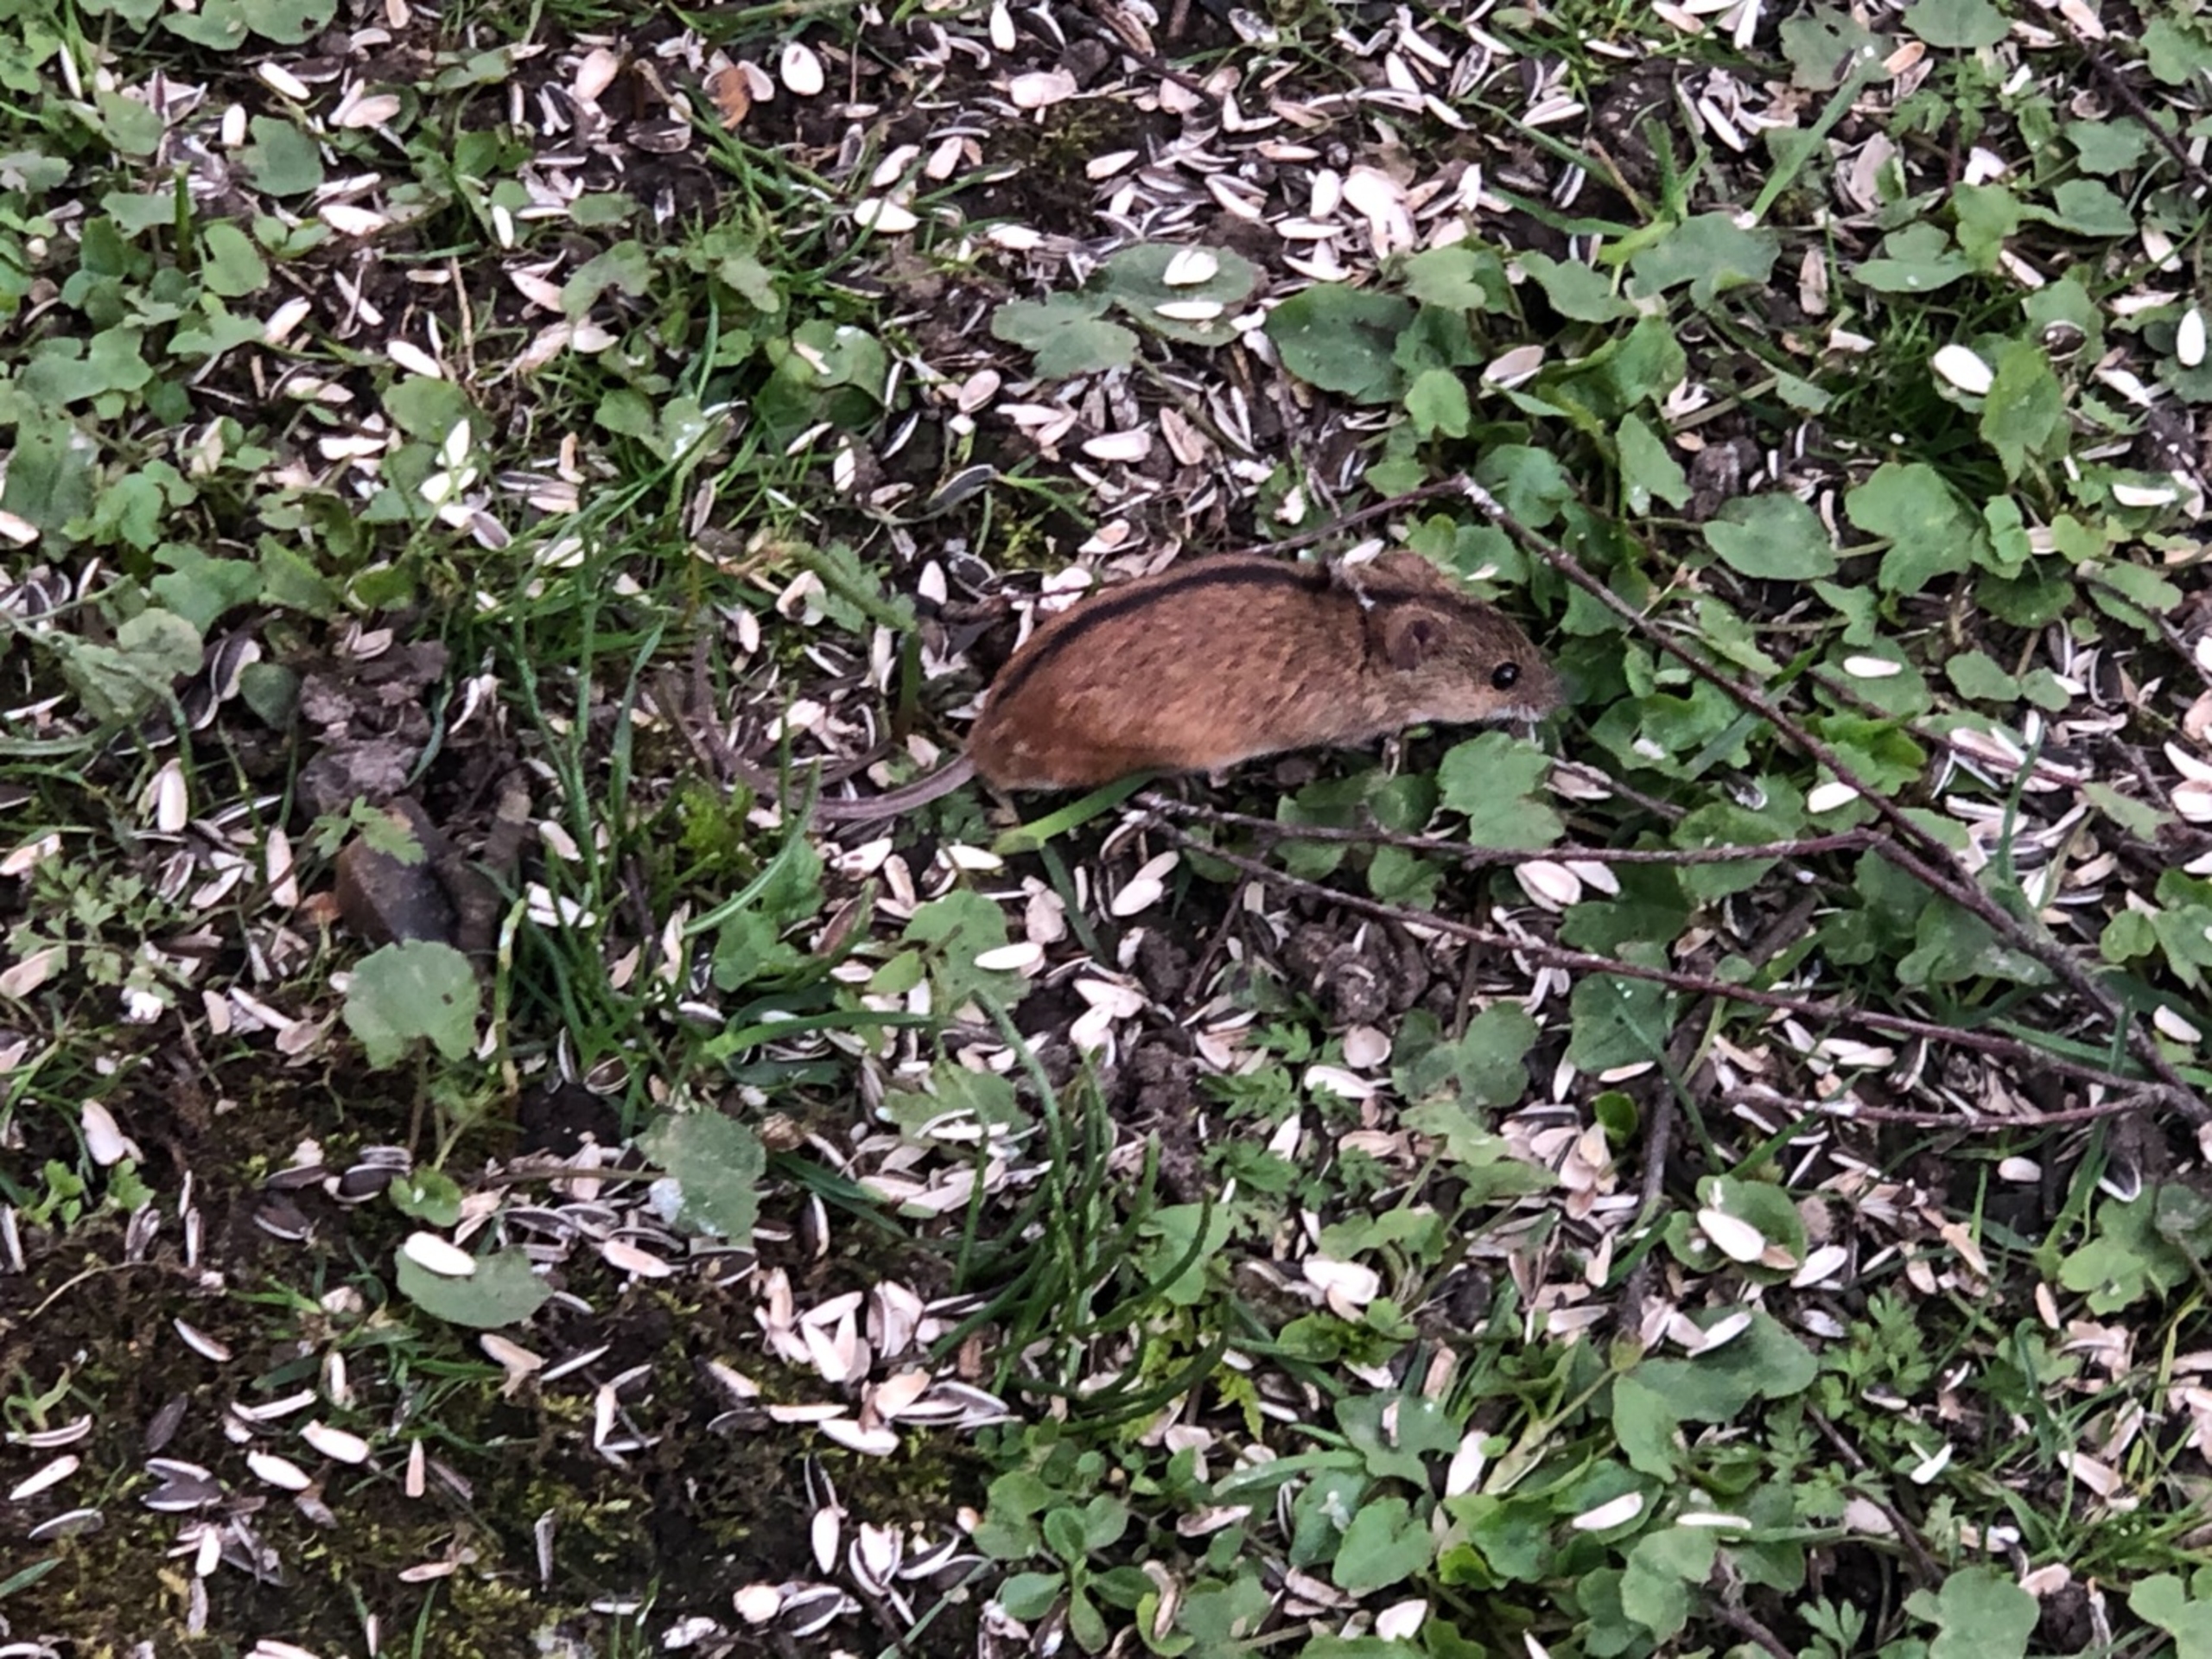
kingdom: Animalia
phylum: Chordata
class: Mammalia
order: Rodentia
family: Muridae
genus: Apodemus
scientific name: Apodemus agrarius
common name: Brandmus
